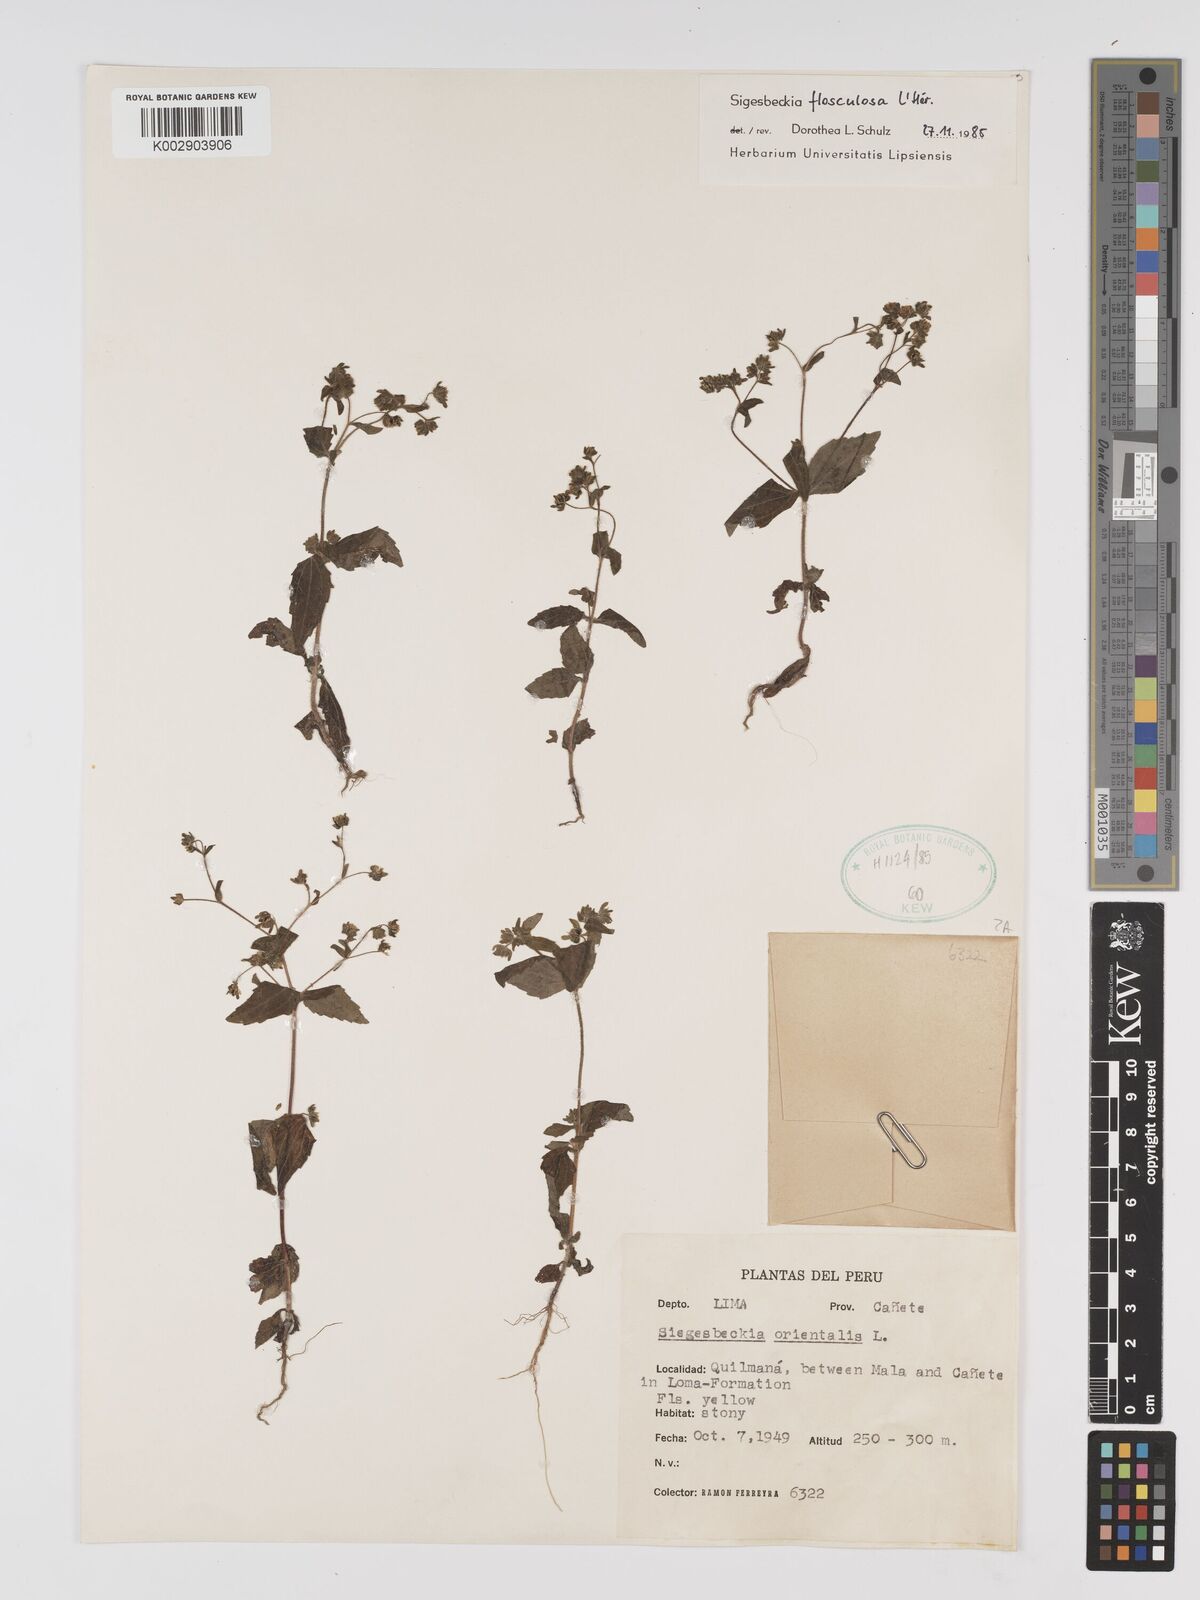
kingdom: Plantae
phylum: Tracheophyta
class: Magnoliopsida
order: Asterales
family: Asteraceae
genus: Sigesbeckia
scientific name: Sigesbeckia flosculosa
